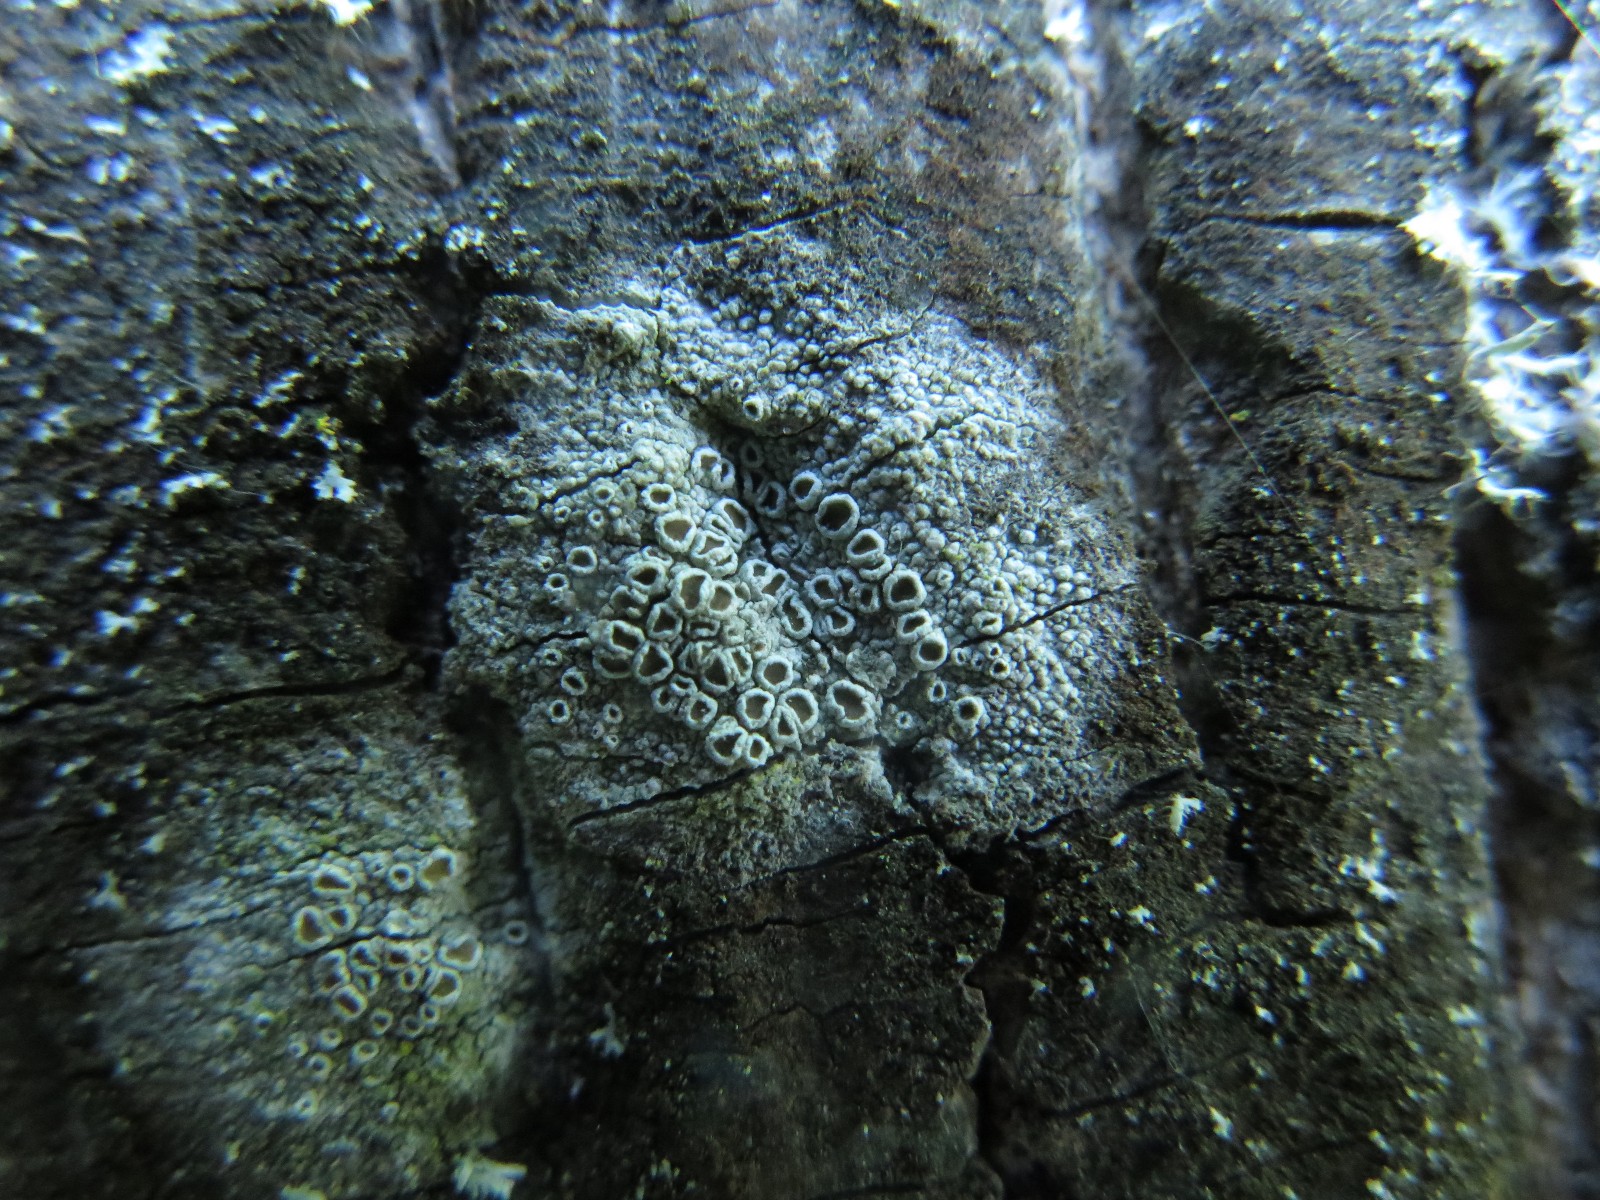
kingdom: Fungi
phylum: Ascomycota
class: Lecanoromycetes
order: Lecanorales
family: Lecanoraceae
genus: Lecanora
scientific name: Lecanora chlarotera
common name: brun kantskivelav
